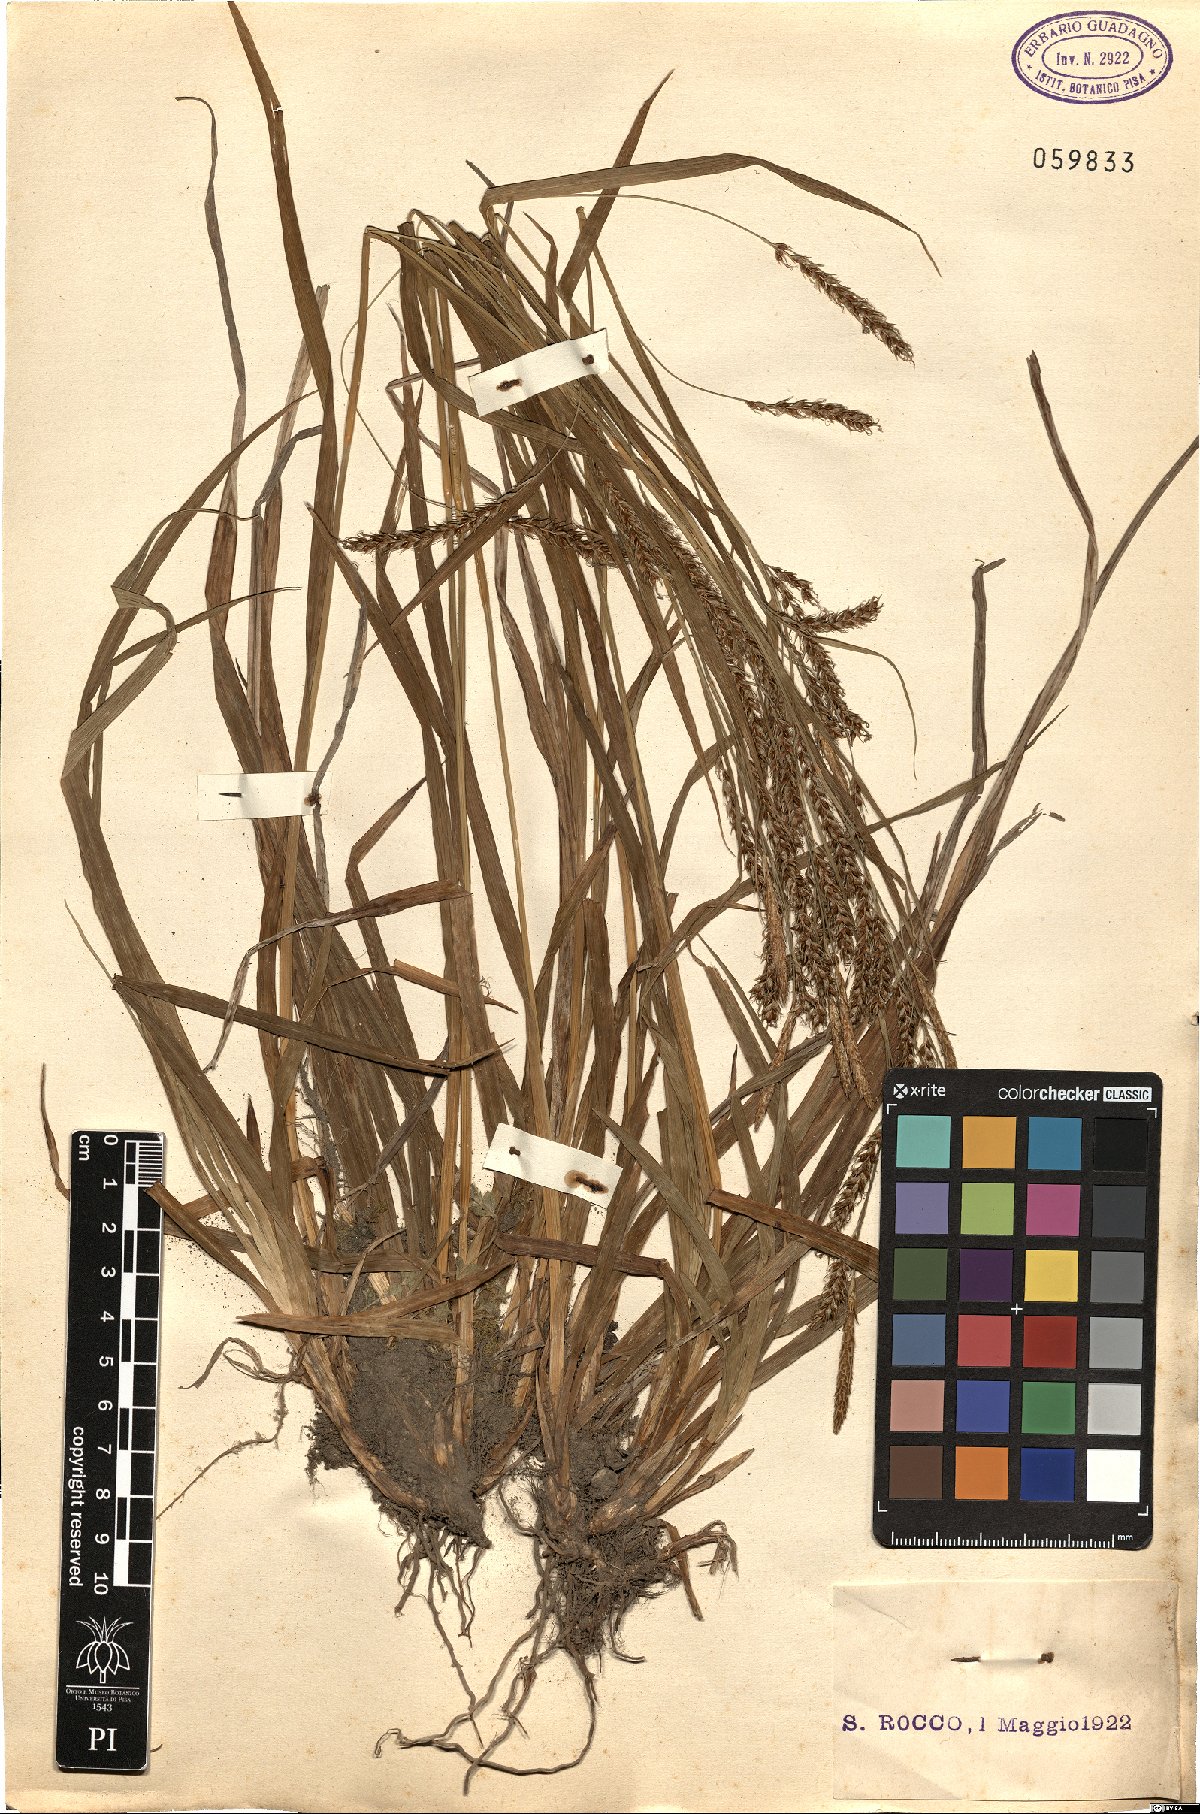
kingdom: Plantae
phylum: Tracheophyta
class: Liliopsida
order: Poales
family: Cyperaceae
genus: Carex
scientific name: Carex
